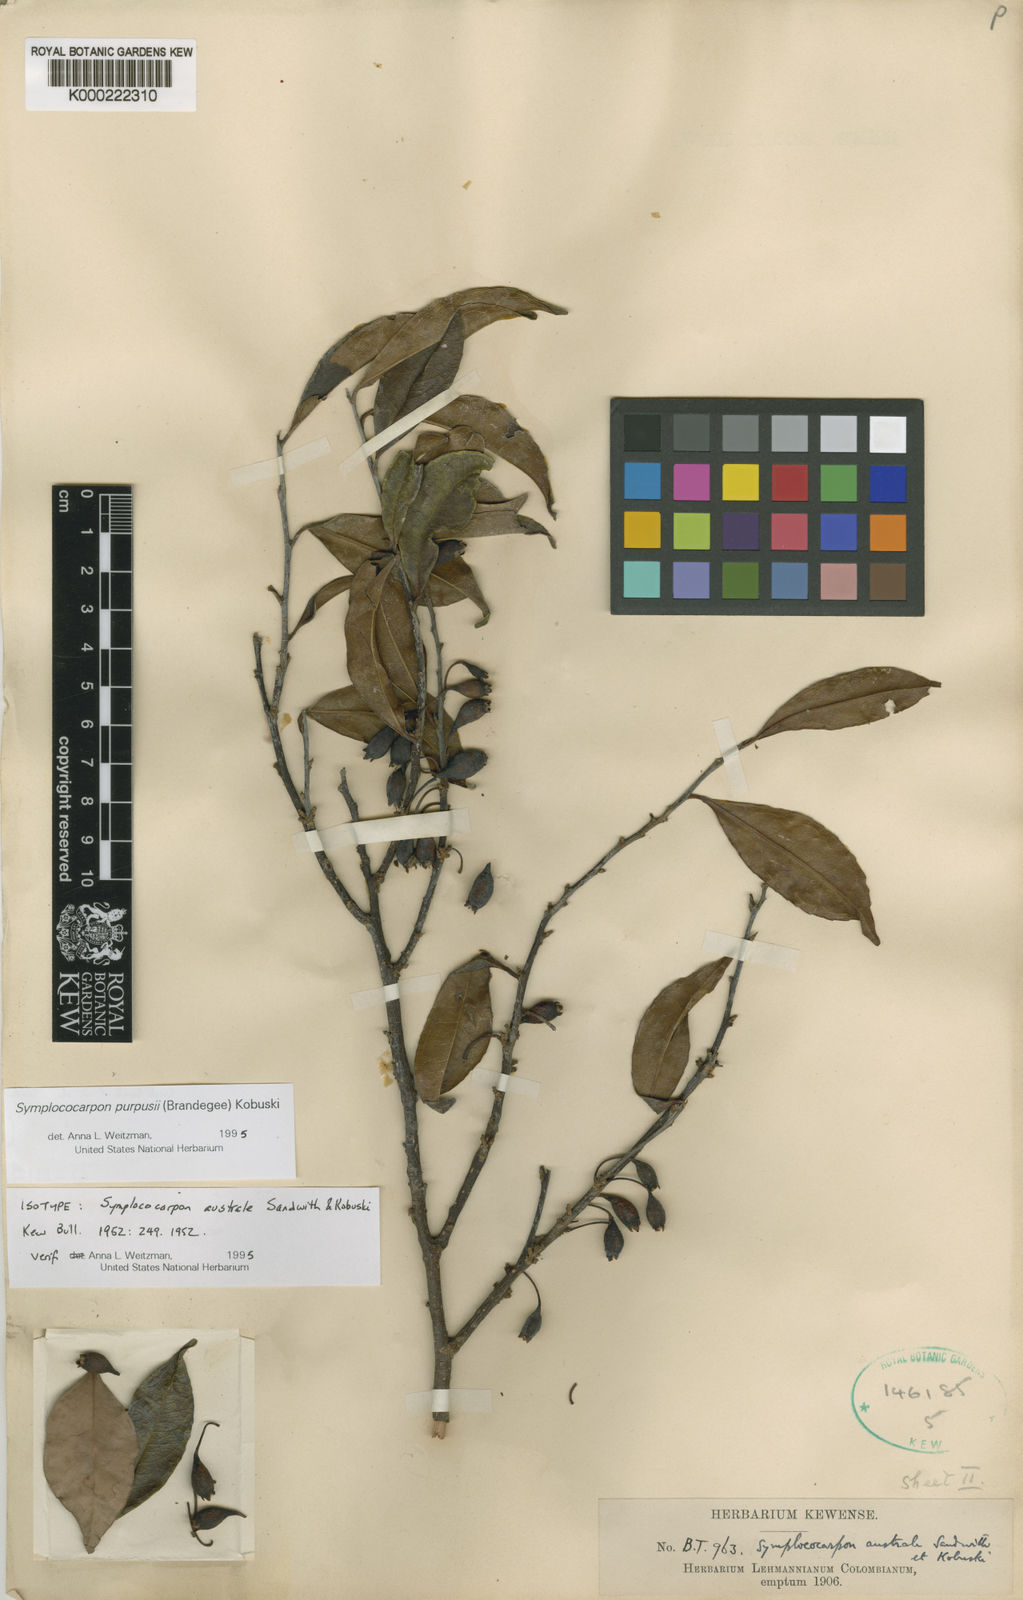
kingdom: Plantae
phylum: Tracheophyta
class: Magnoliopsida
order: Ericales
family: Pentaphylacaceae
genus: Symplococarpon
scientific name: Symplococarpon purpusii
